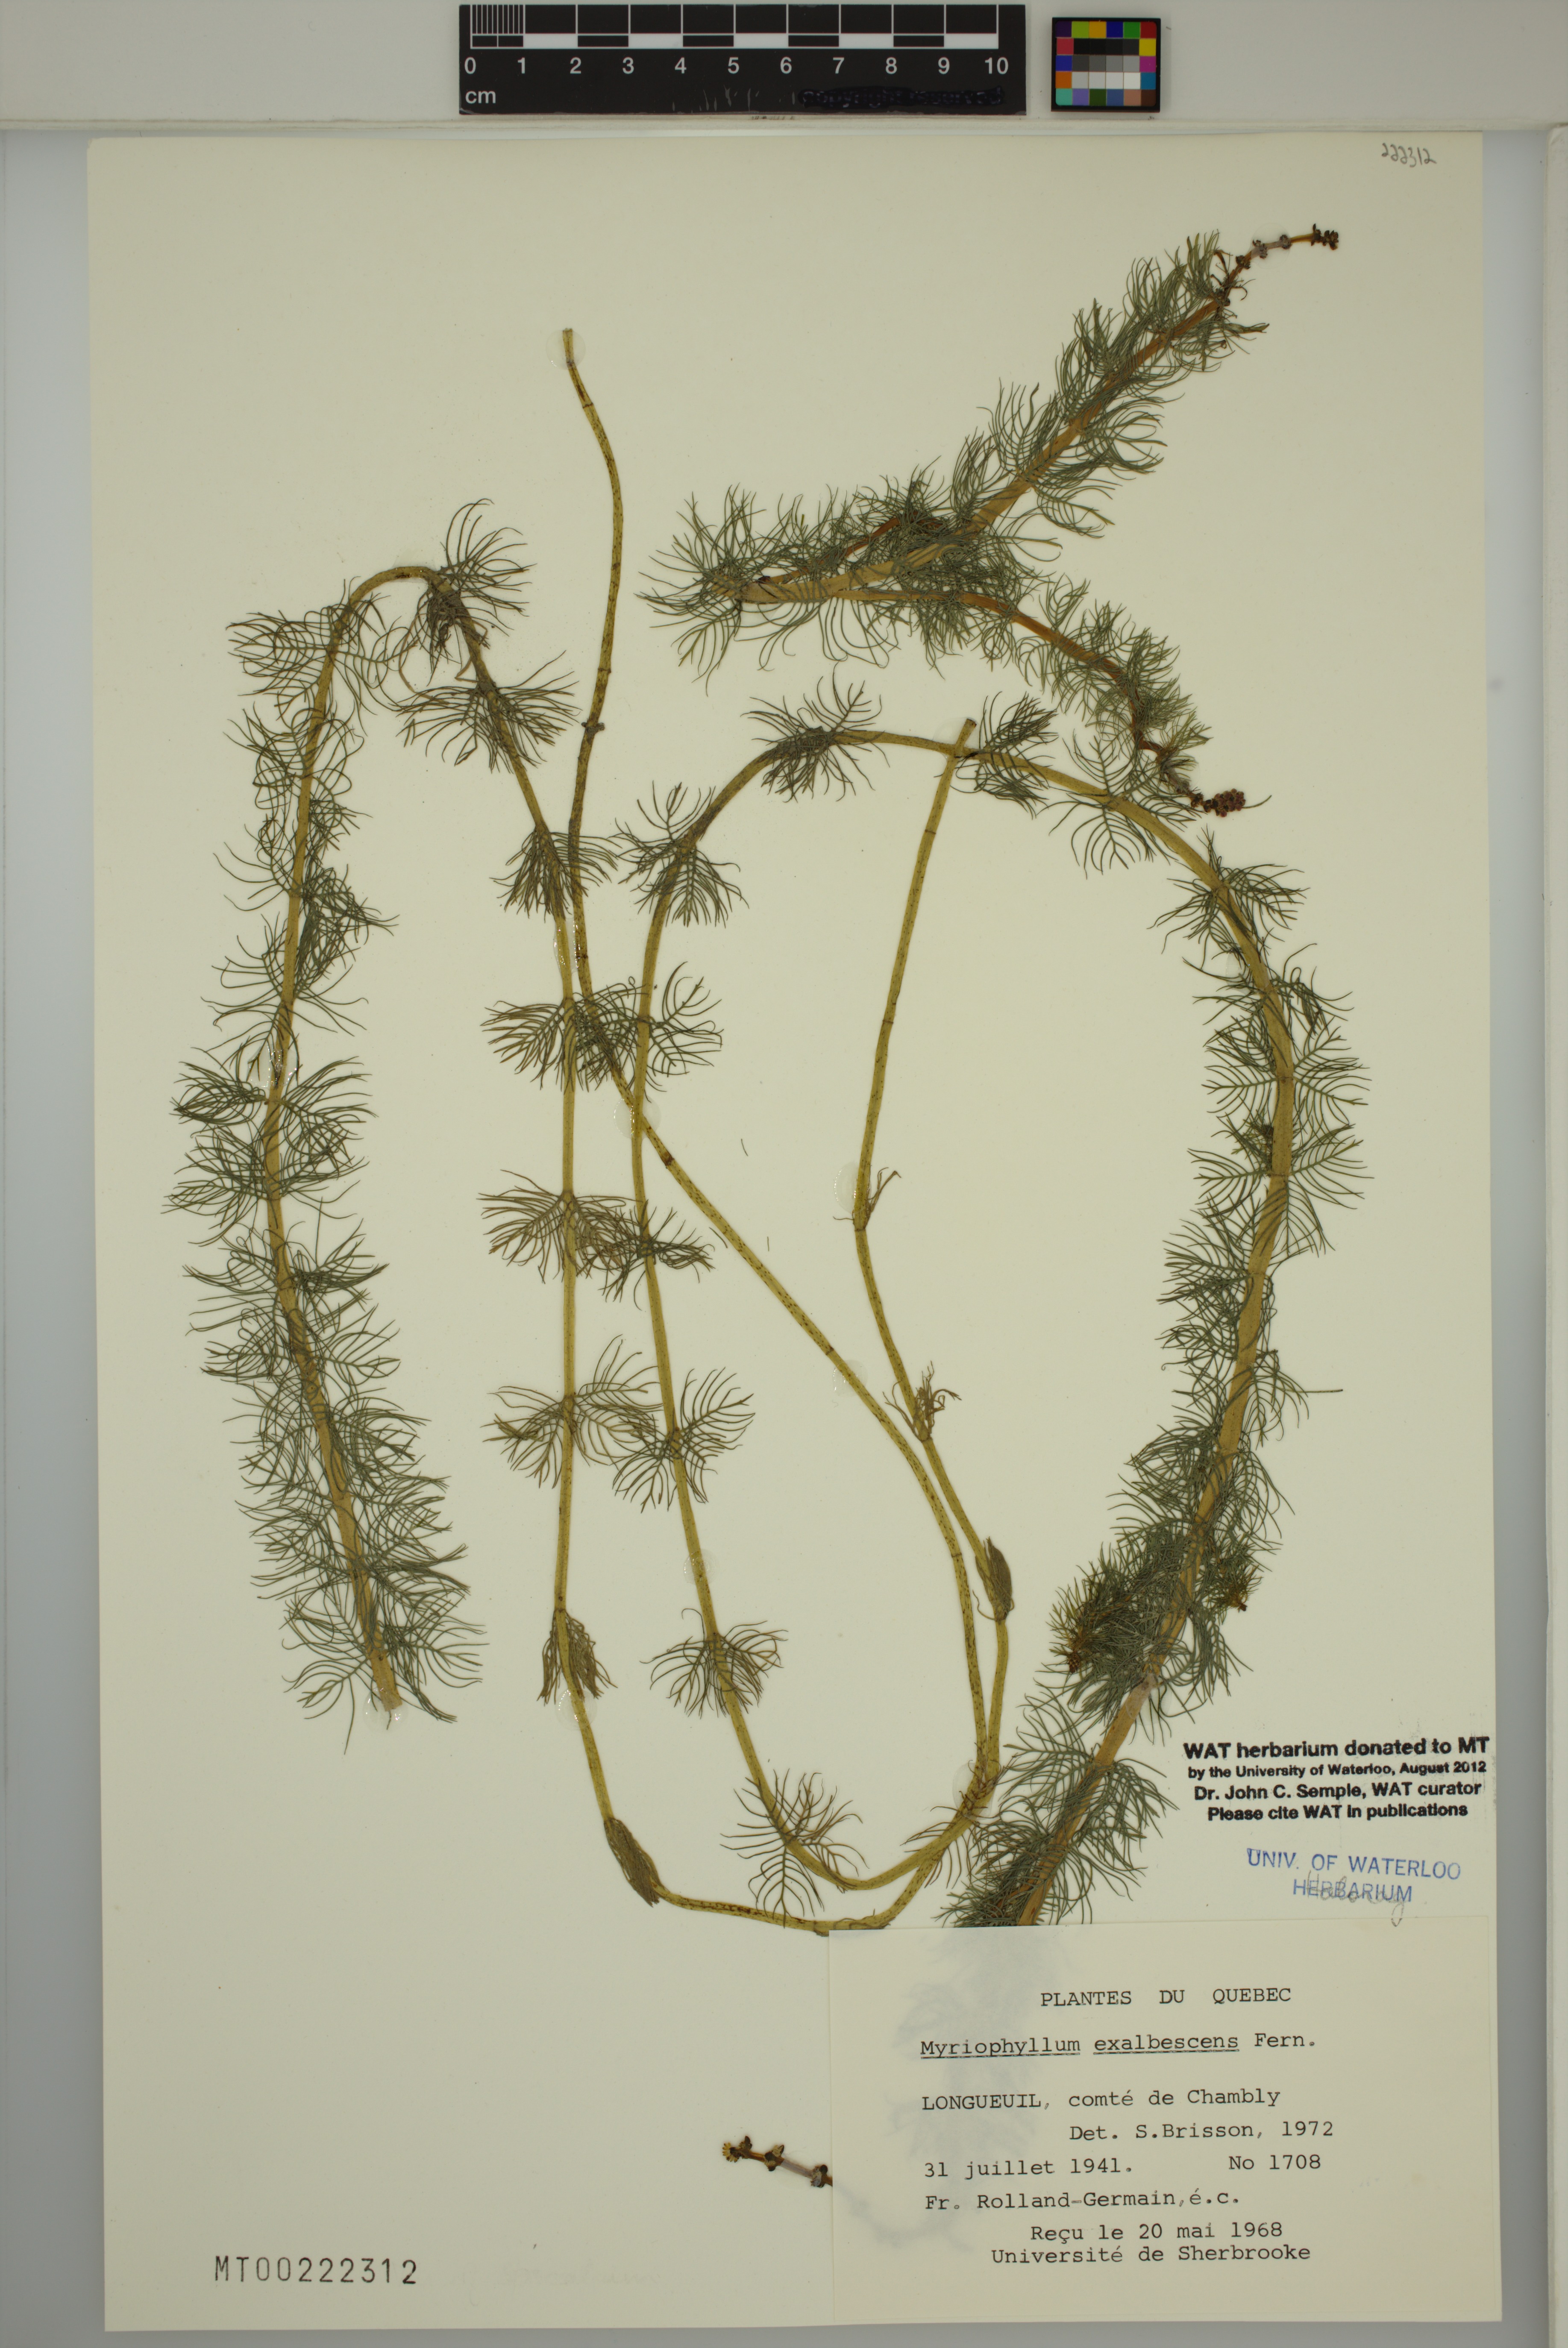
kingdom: Plantae
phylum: Tracheophyta
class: Magnoliopsida
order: Saxifragales
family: Haloragaceae
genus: Myriophyllum
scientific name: Myriophyllum sibiricum
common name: Siberian water-milfoil
